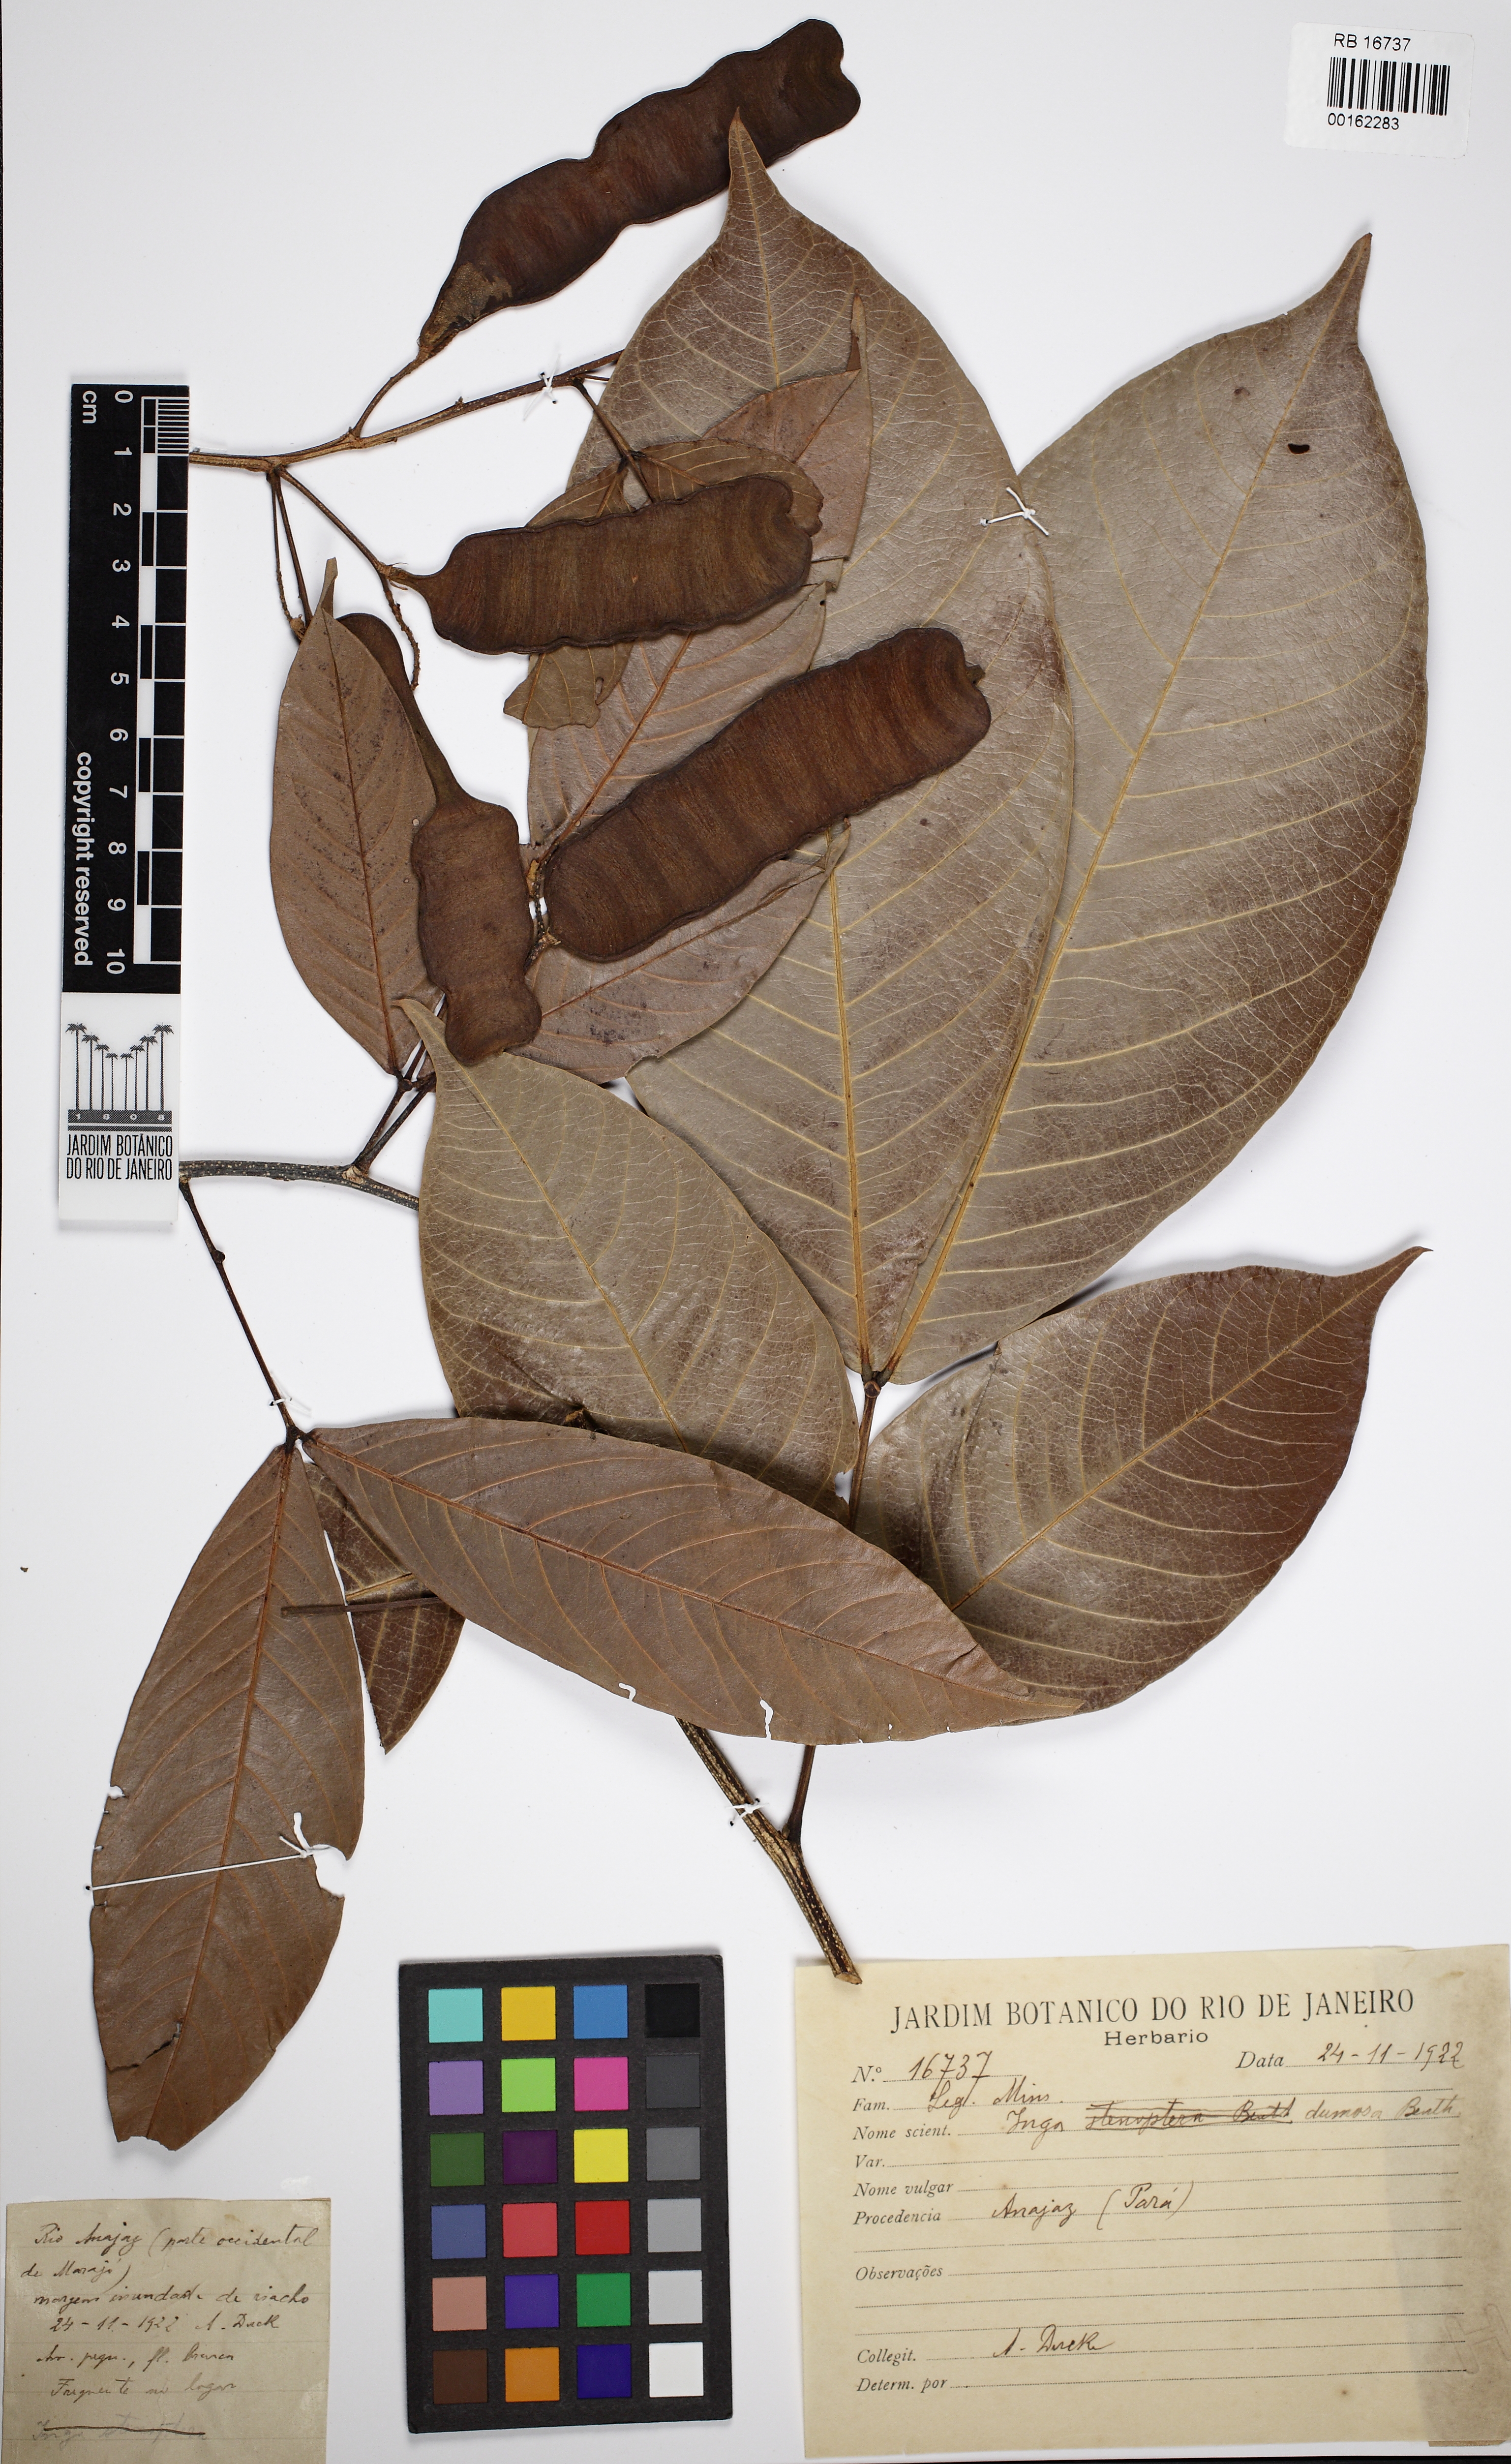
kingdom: Plantae
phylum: Tracheophyta
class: Magnoliopsida
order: Fabales
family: Fabaceae
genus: Inga
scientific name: Inga stenoptera
